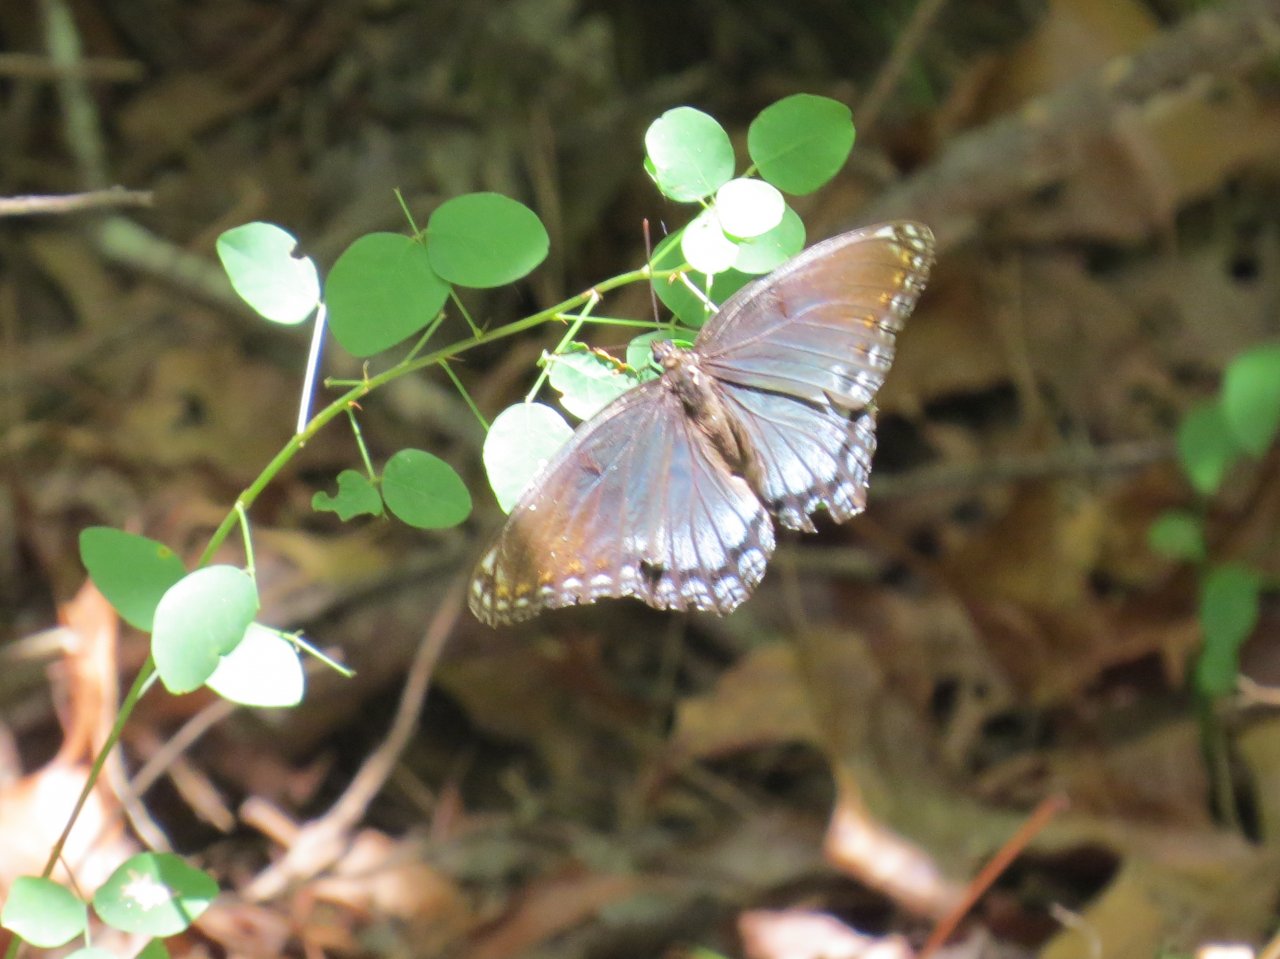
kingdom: Animalia
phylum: Arthropoda
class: Insecta
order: Lepidoptera
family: Nymphalidae
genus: Limenitis
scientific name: Limenitis astyanax
